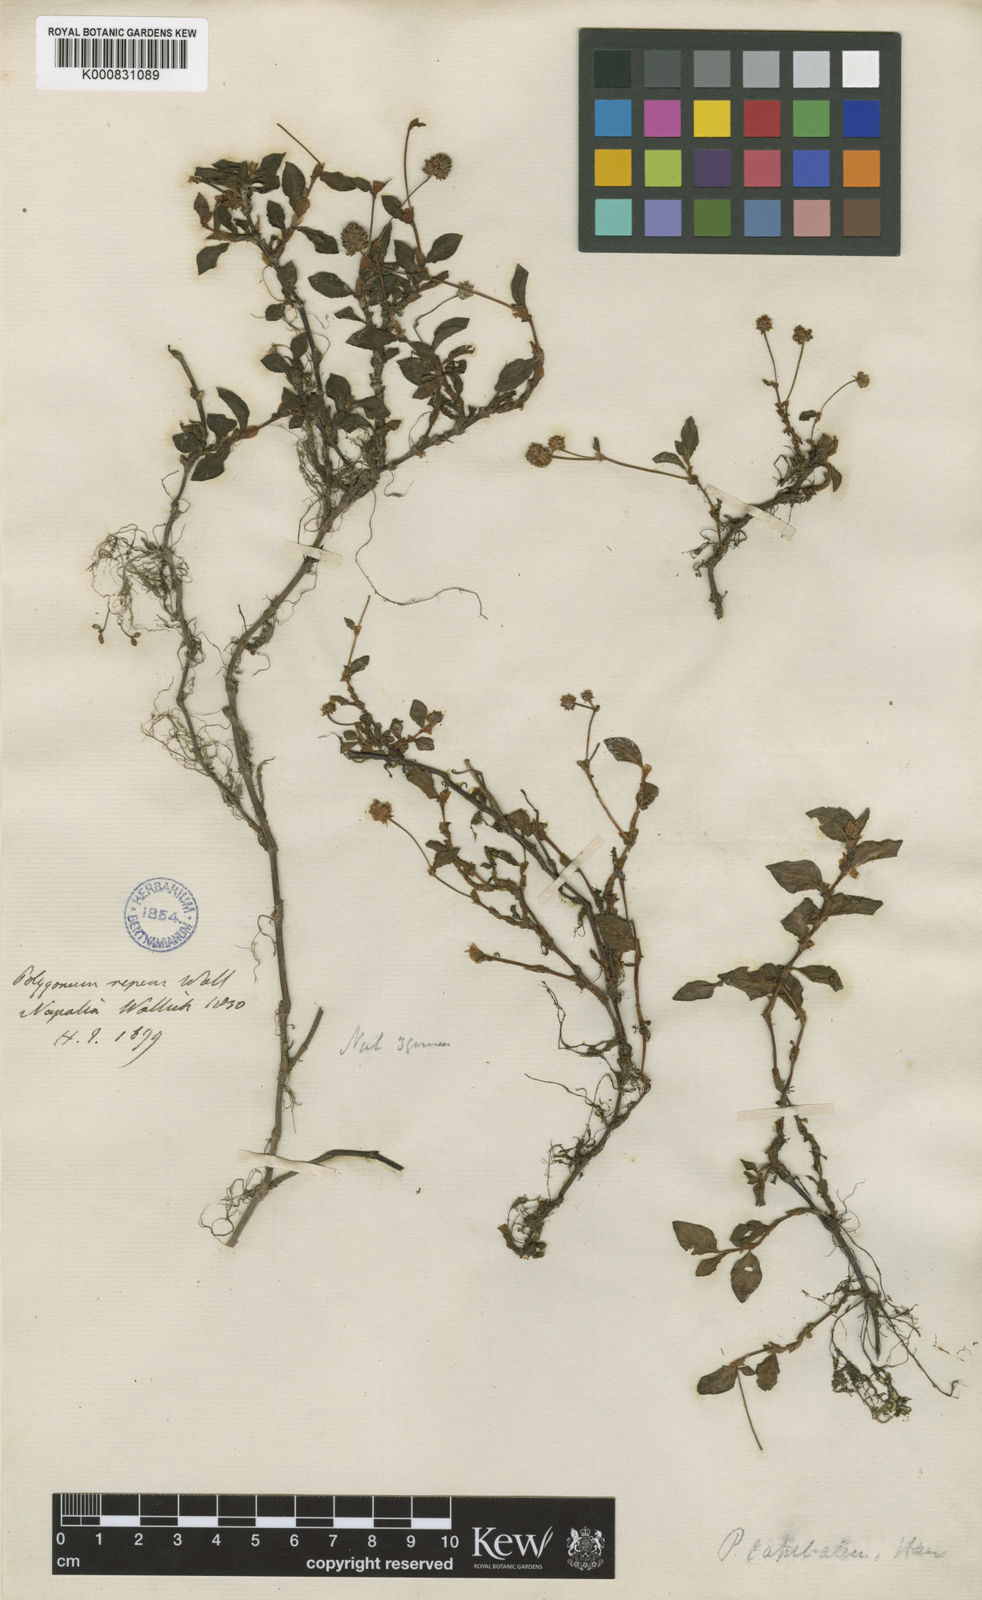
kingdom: Plantae
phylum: Tracheophyta
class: Magnoliopsida
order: Caryophyllales
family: Polygonaceae
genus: Persicaria
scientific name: Persicaria capitata
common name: Pinkhead smartweed
